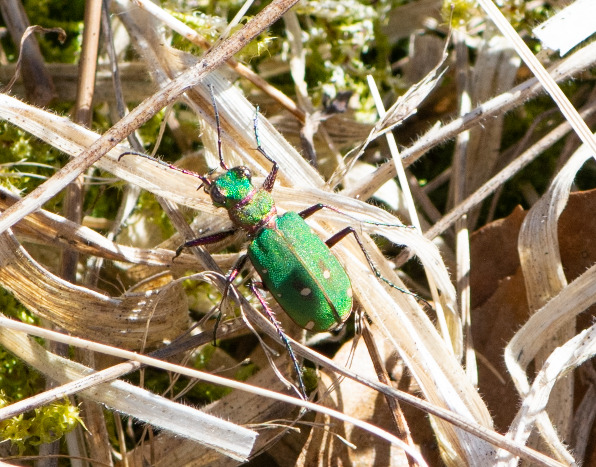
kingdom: Animalia
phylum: Arthropoda
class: Insecta
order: Coleoptera
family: Carabidae
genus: Cicindela
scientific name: Cicindela campestris
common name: Grøn sandspringer
